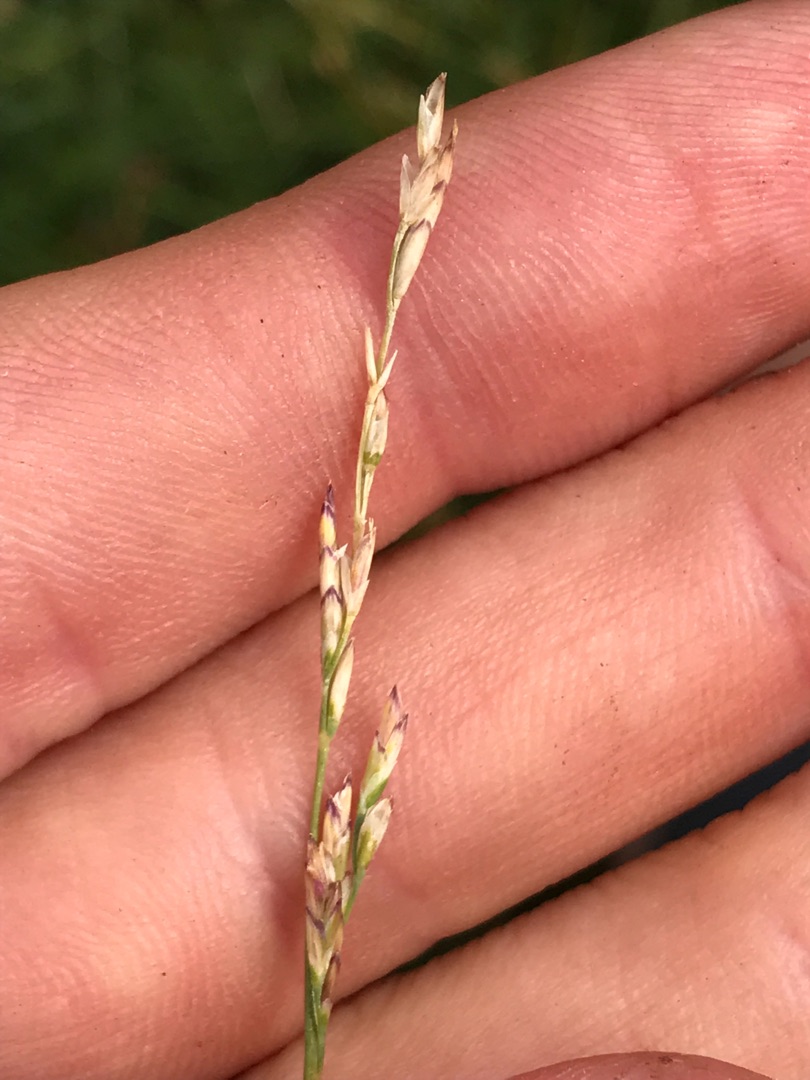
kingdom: Plantae
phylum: Tracheophyta
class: Liliopsida
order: Poales
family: Poaceae
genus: Puccinellia
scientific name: Puccinellia maritima
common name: Strand-annelgræs
